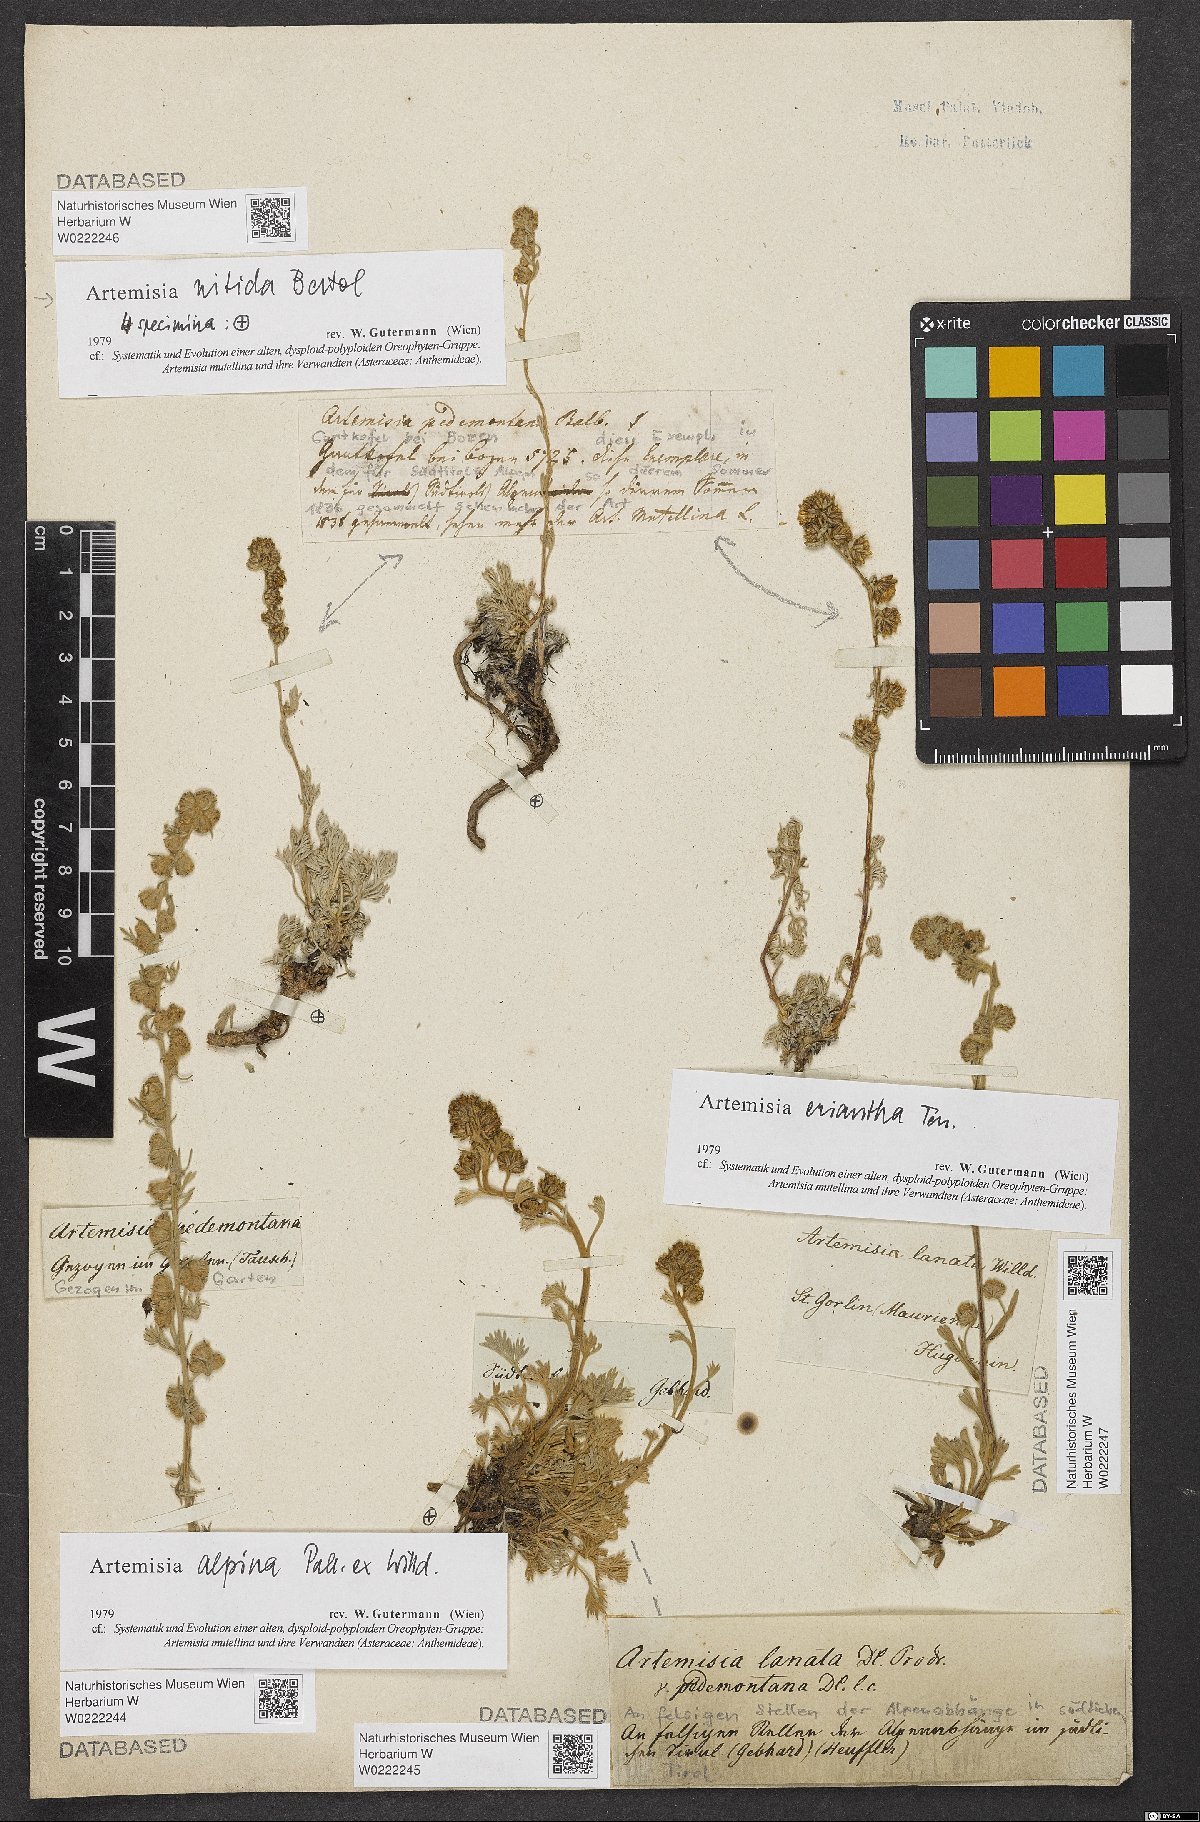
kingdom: Plantae
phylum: Tracheophyta
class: Magnoliopsida
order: Asterales
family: Asteraceae
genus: Artemisia
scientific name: Artemisia alpina
